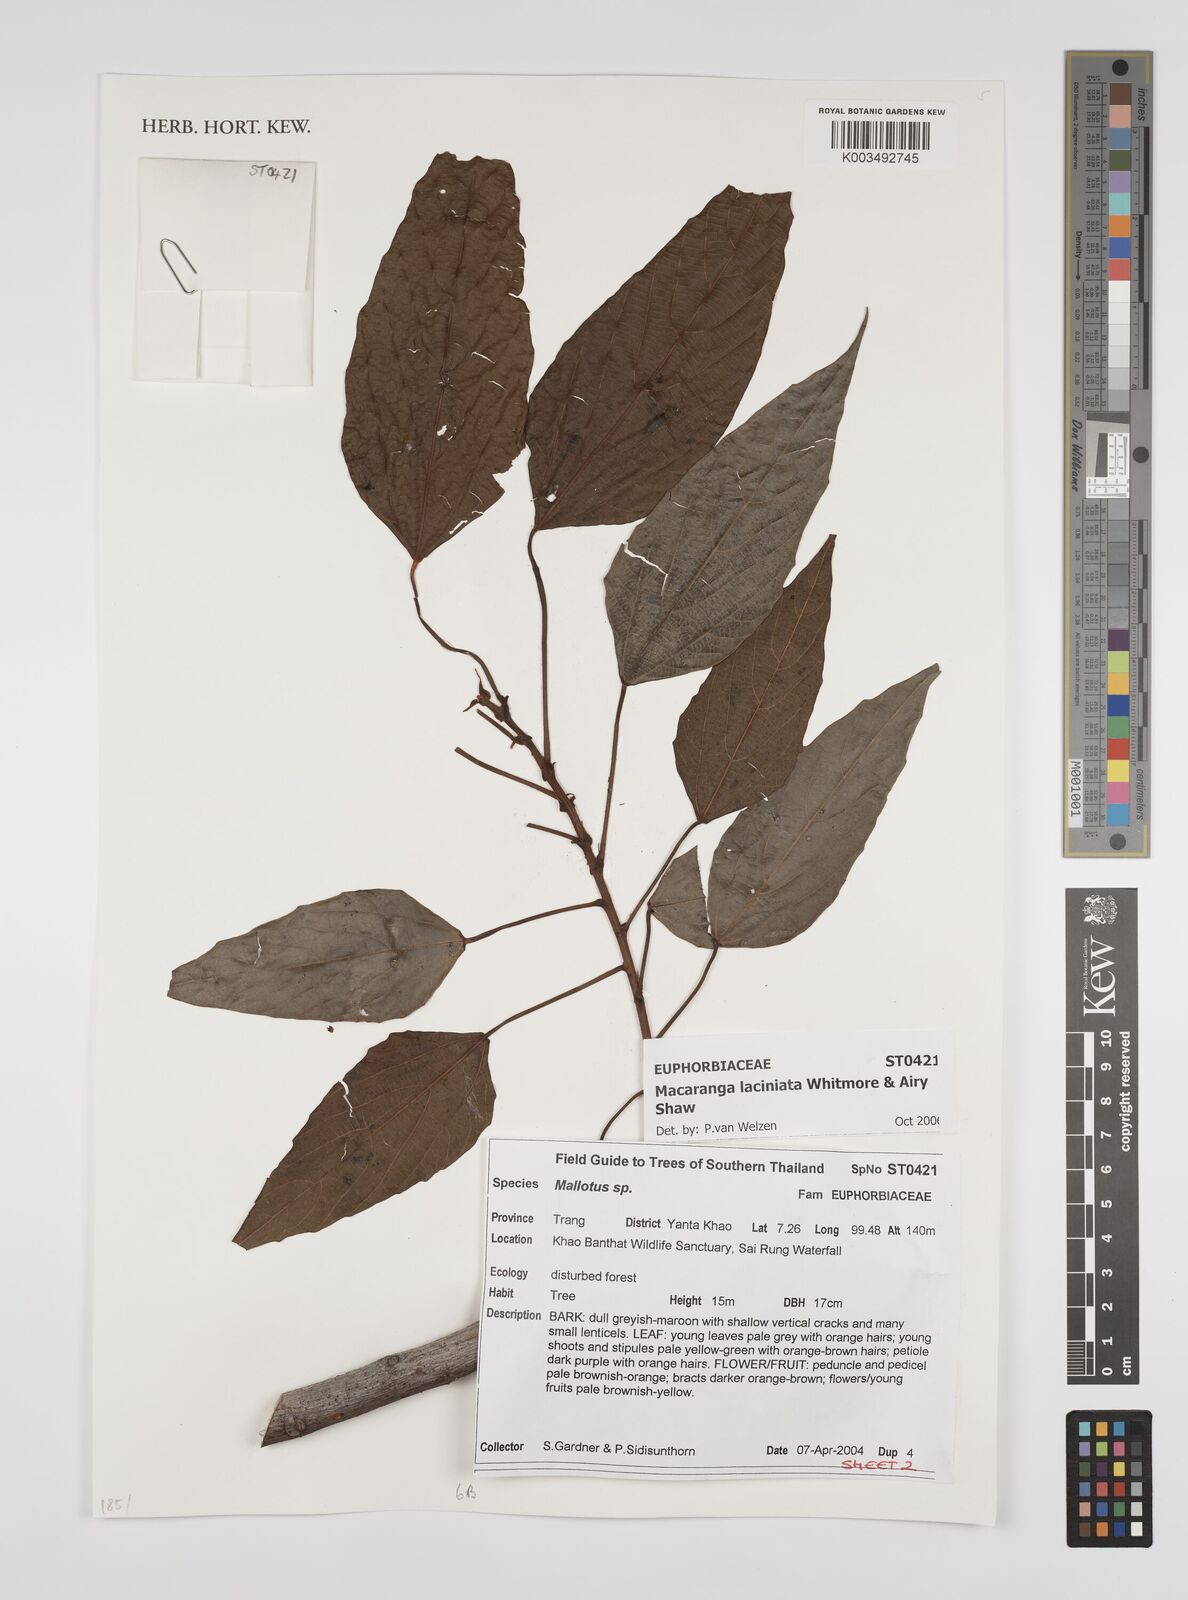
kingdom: Plantae
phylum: Tracheophyta
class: Magnoliopsida
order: Malpighiales
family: Euphorbiaceae
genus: Macaranga
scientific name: Macaranga laciniata
